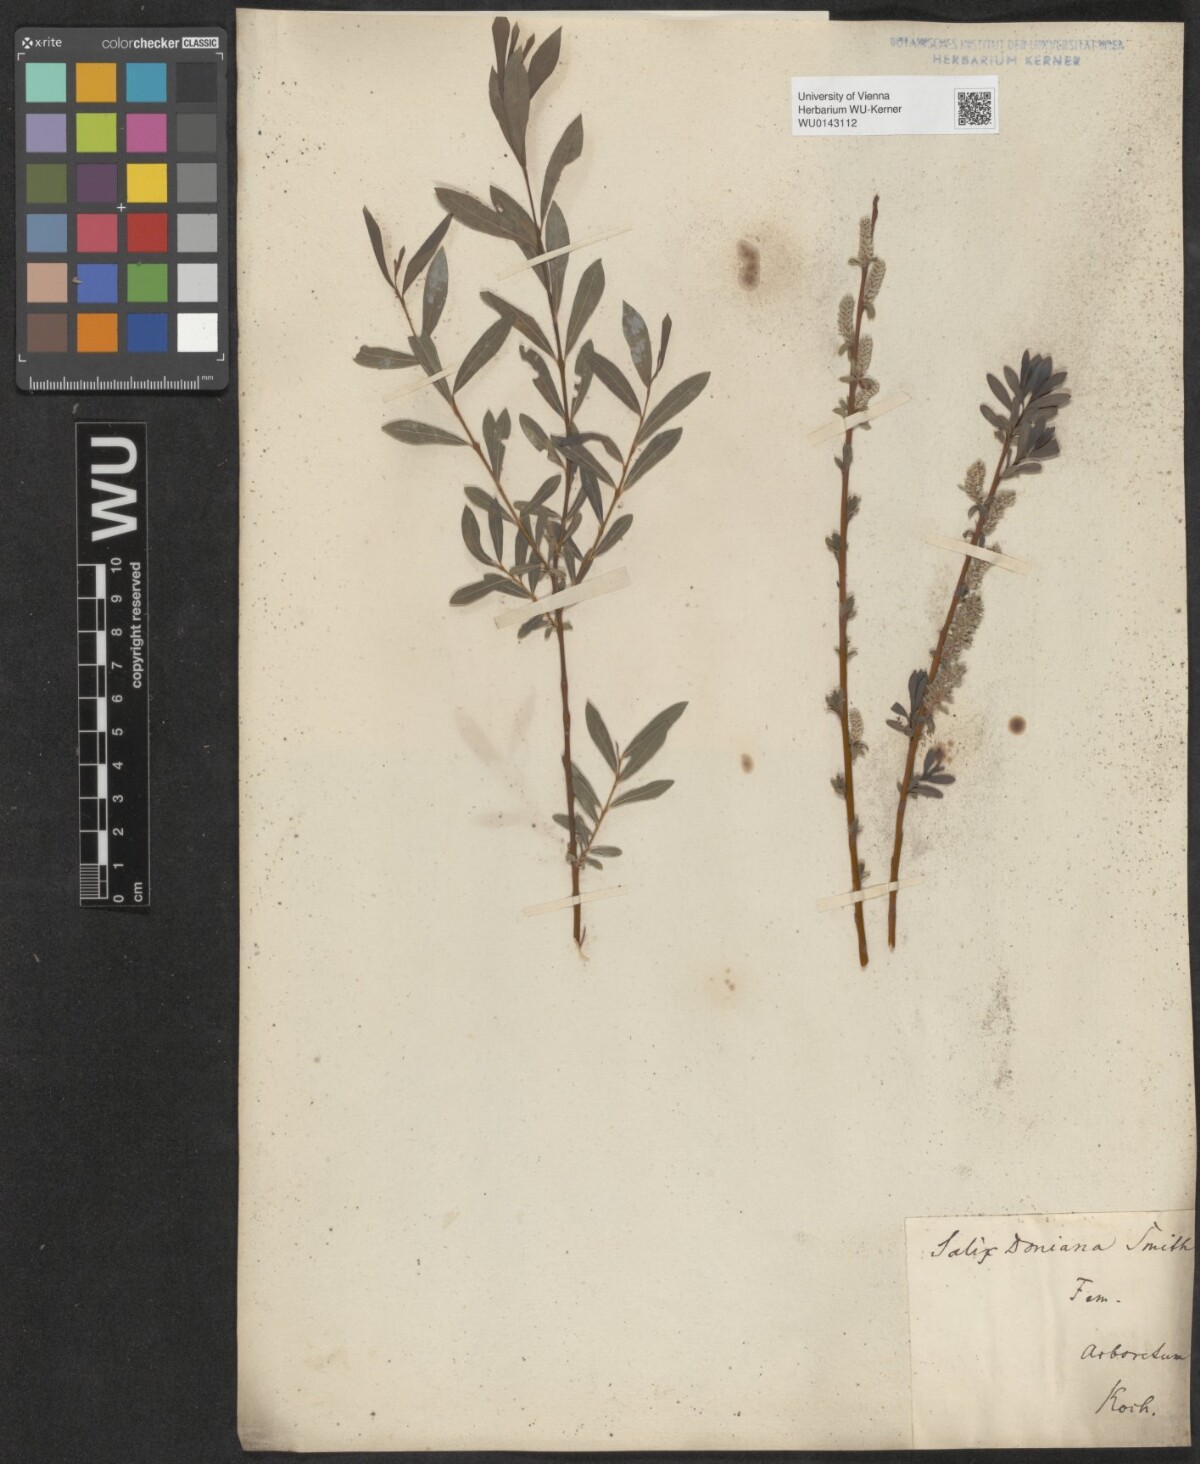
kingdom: Plantae
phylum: Tracheophyta
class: Magnoliopsida
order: Malpighiales
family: Salicaceae
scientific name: Salicaceae
